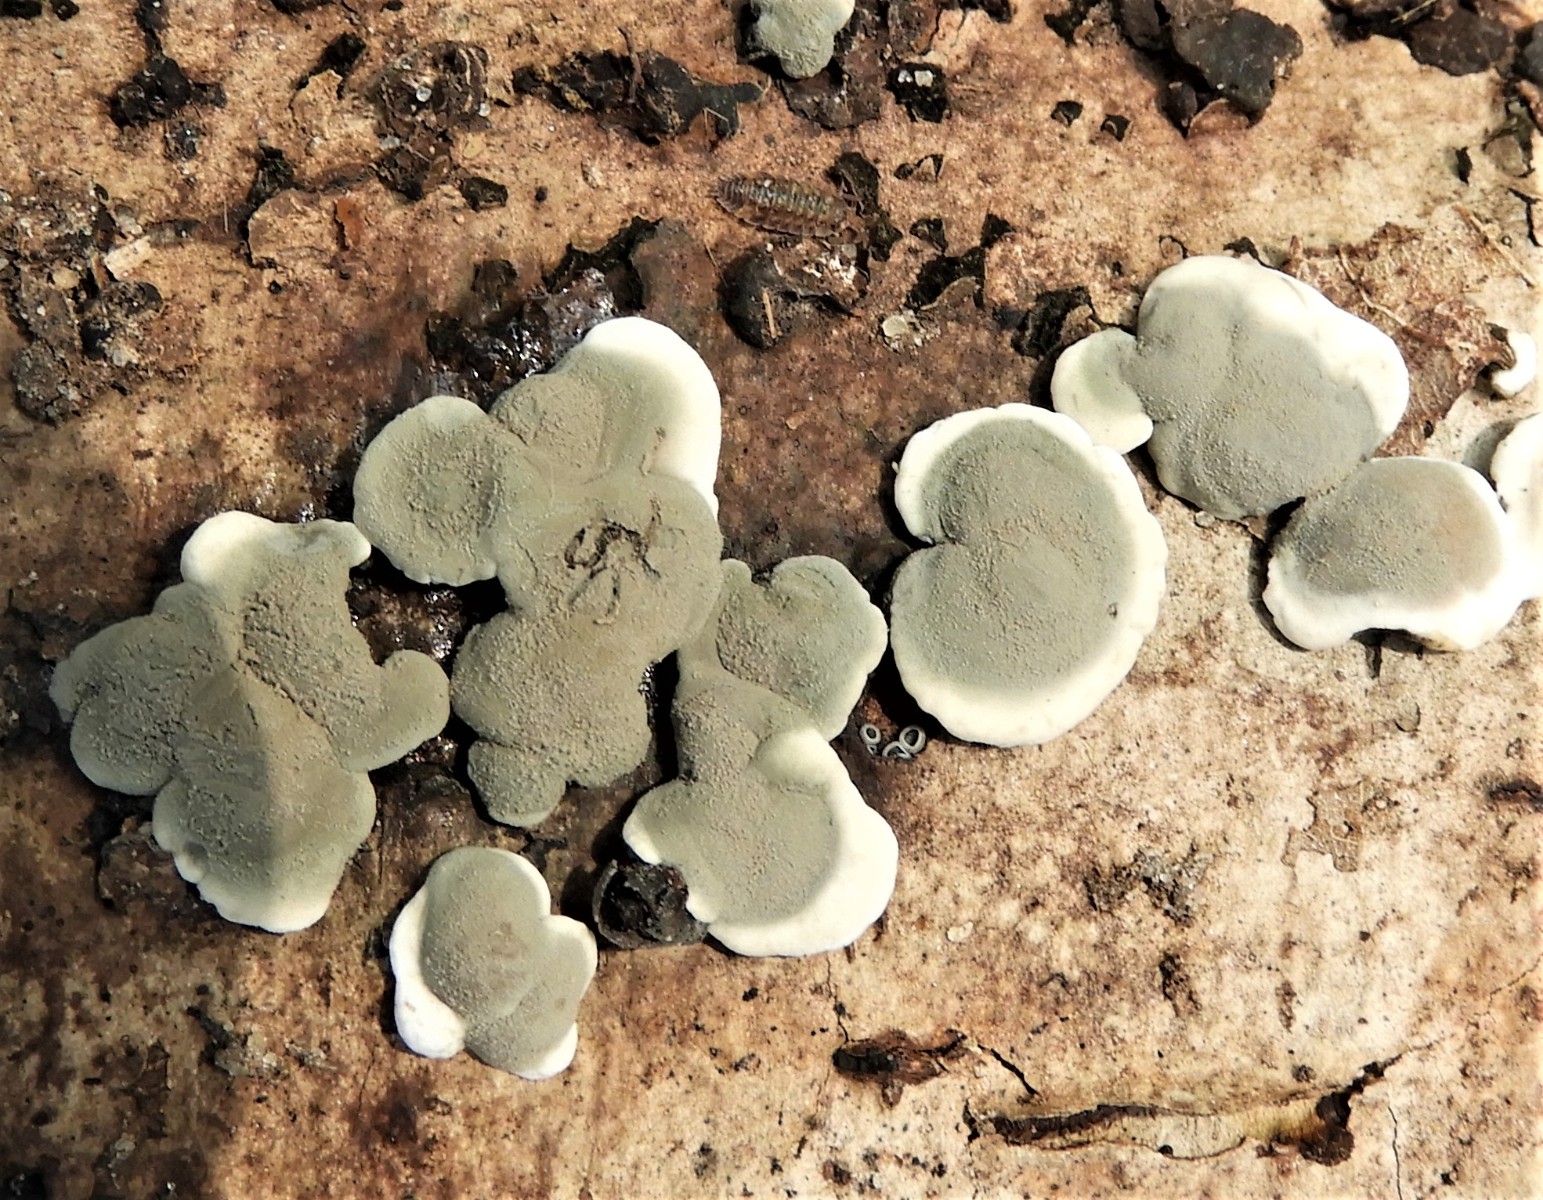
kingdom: Fungi
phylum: Ascomycota
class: Sordariomycetes
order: Xylariales
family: Xylariaceae
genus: Kretzschmaria
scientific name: Kretzschmaria deusta
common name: stor kulsvamp
